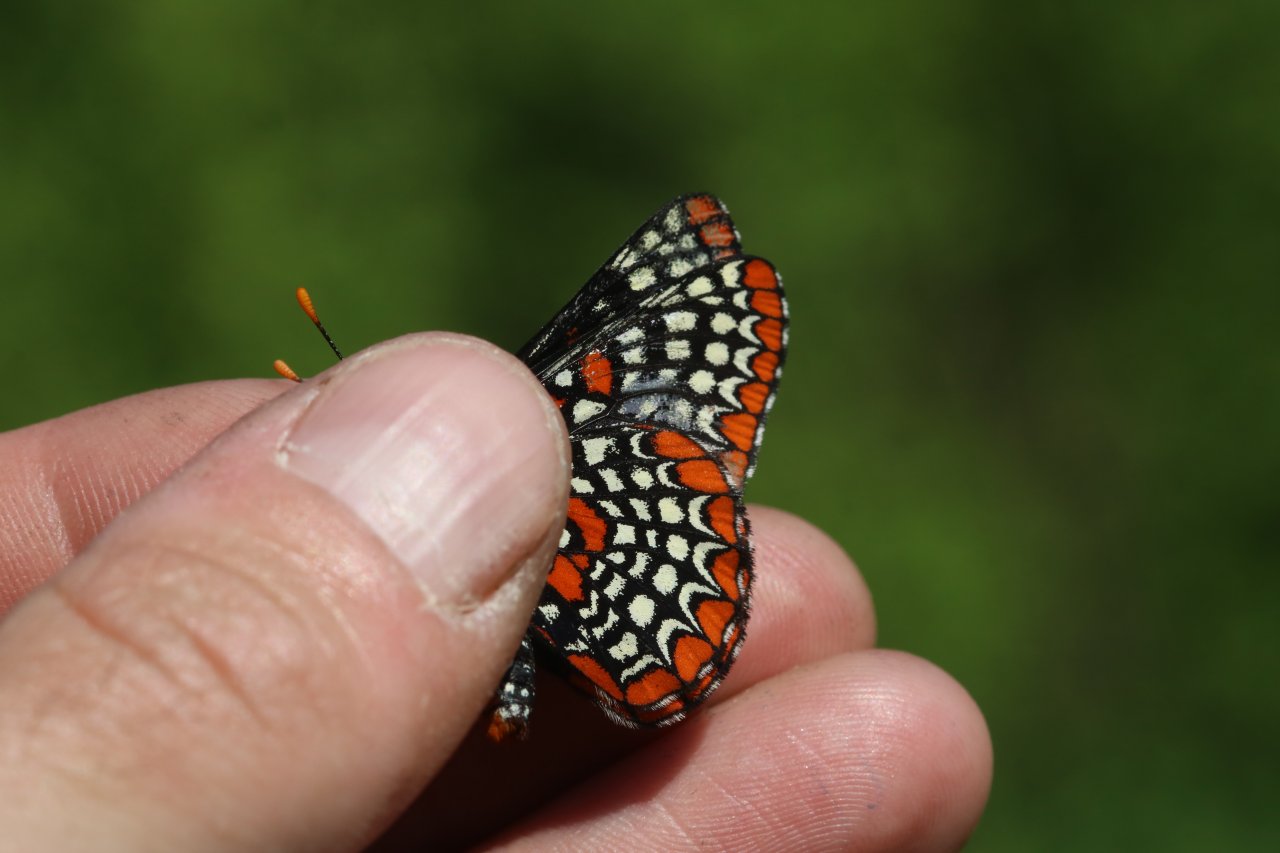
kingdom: Animalia
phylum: Arthropoda
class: Insecta
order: Lepidoptera
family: Nymphalidae
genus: Euphydryas
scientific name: Euphydryas phaeton
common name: Baltimore Checkerspot
